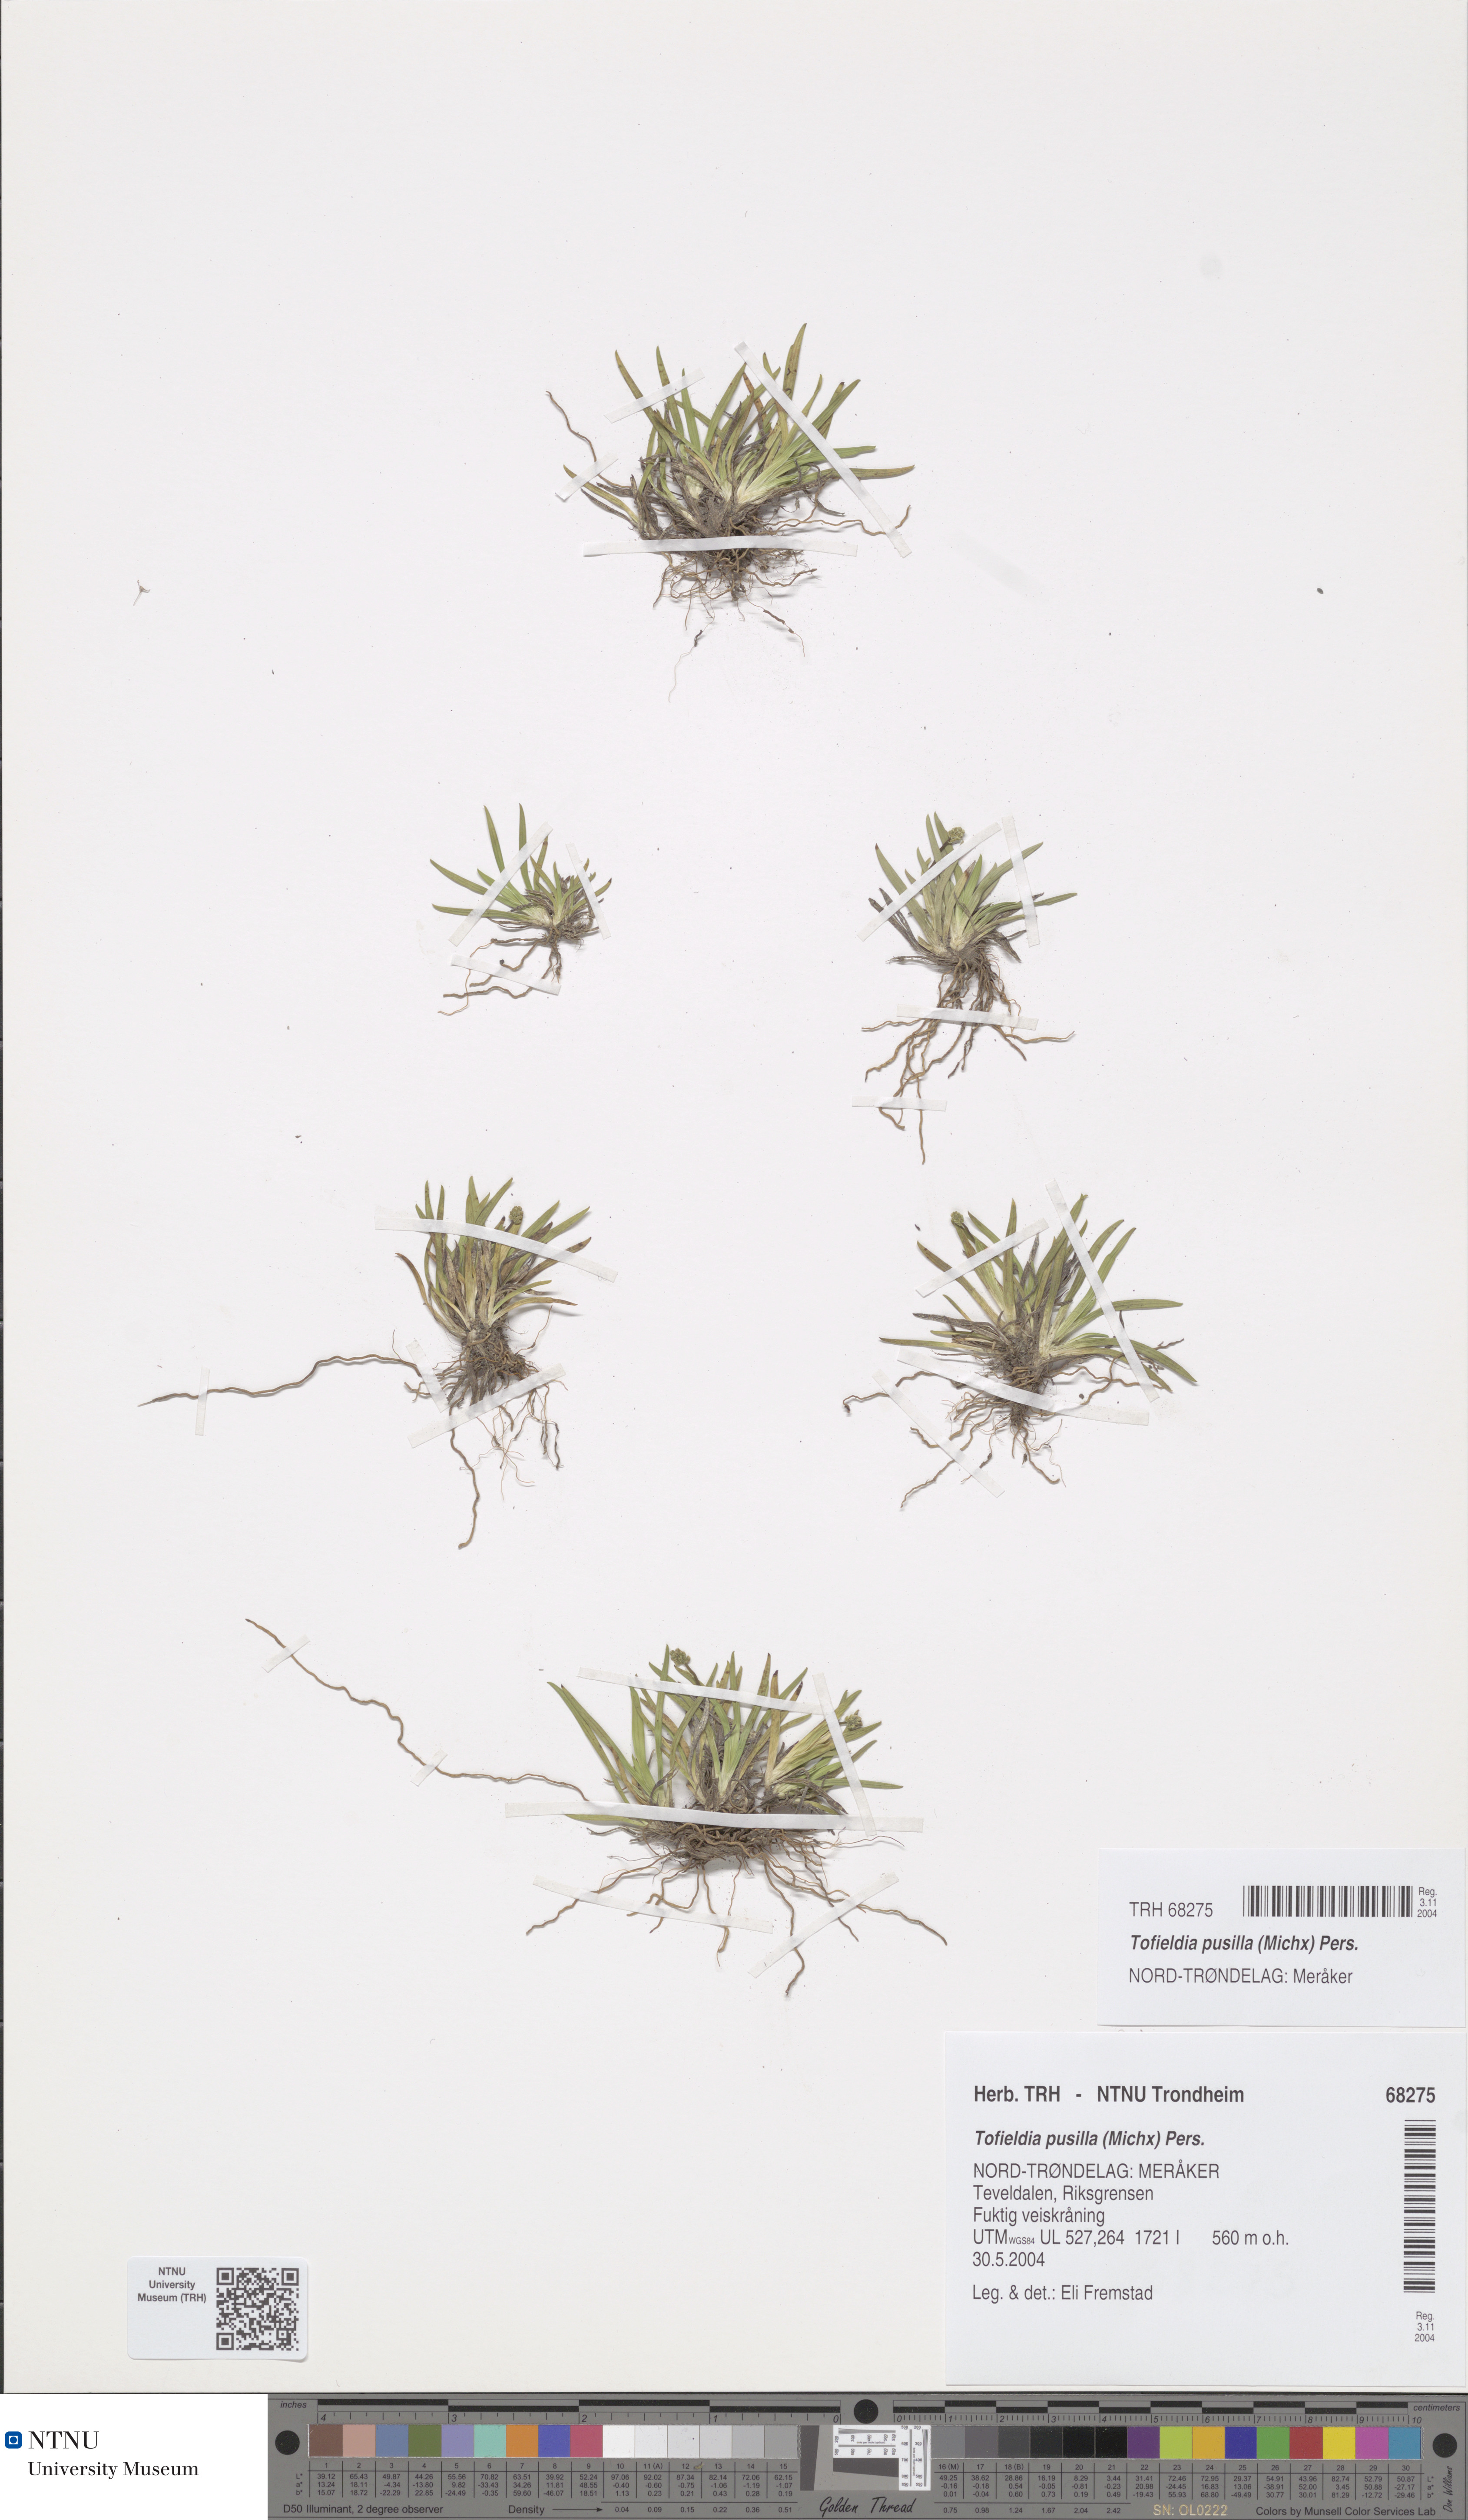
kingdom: Plantae
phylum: Tracheophyta
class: Liliopsida
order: Alismatales
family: Tofieldiaceae
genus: Tofieldia
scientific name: Tofieldia pusilla
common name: Scottish false asphodel
